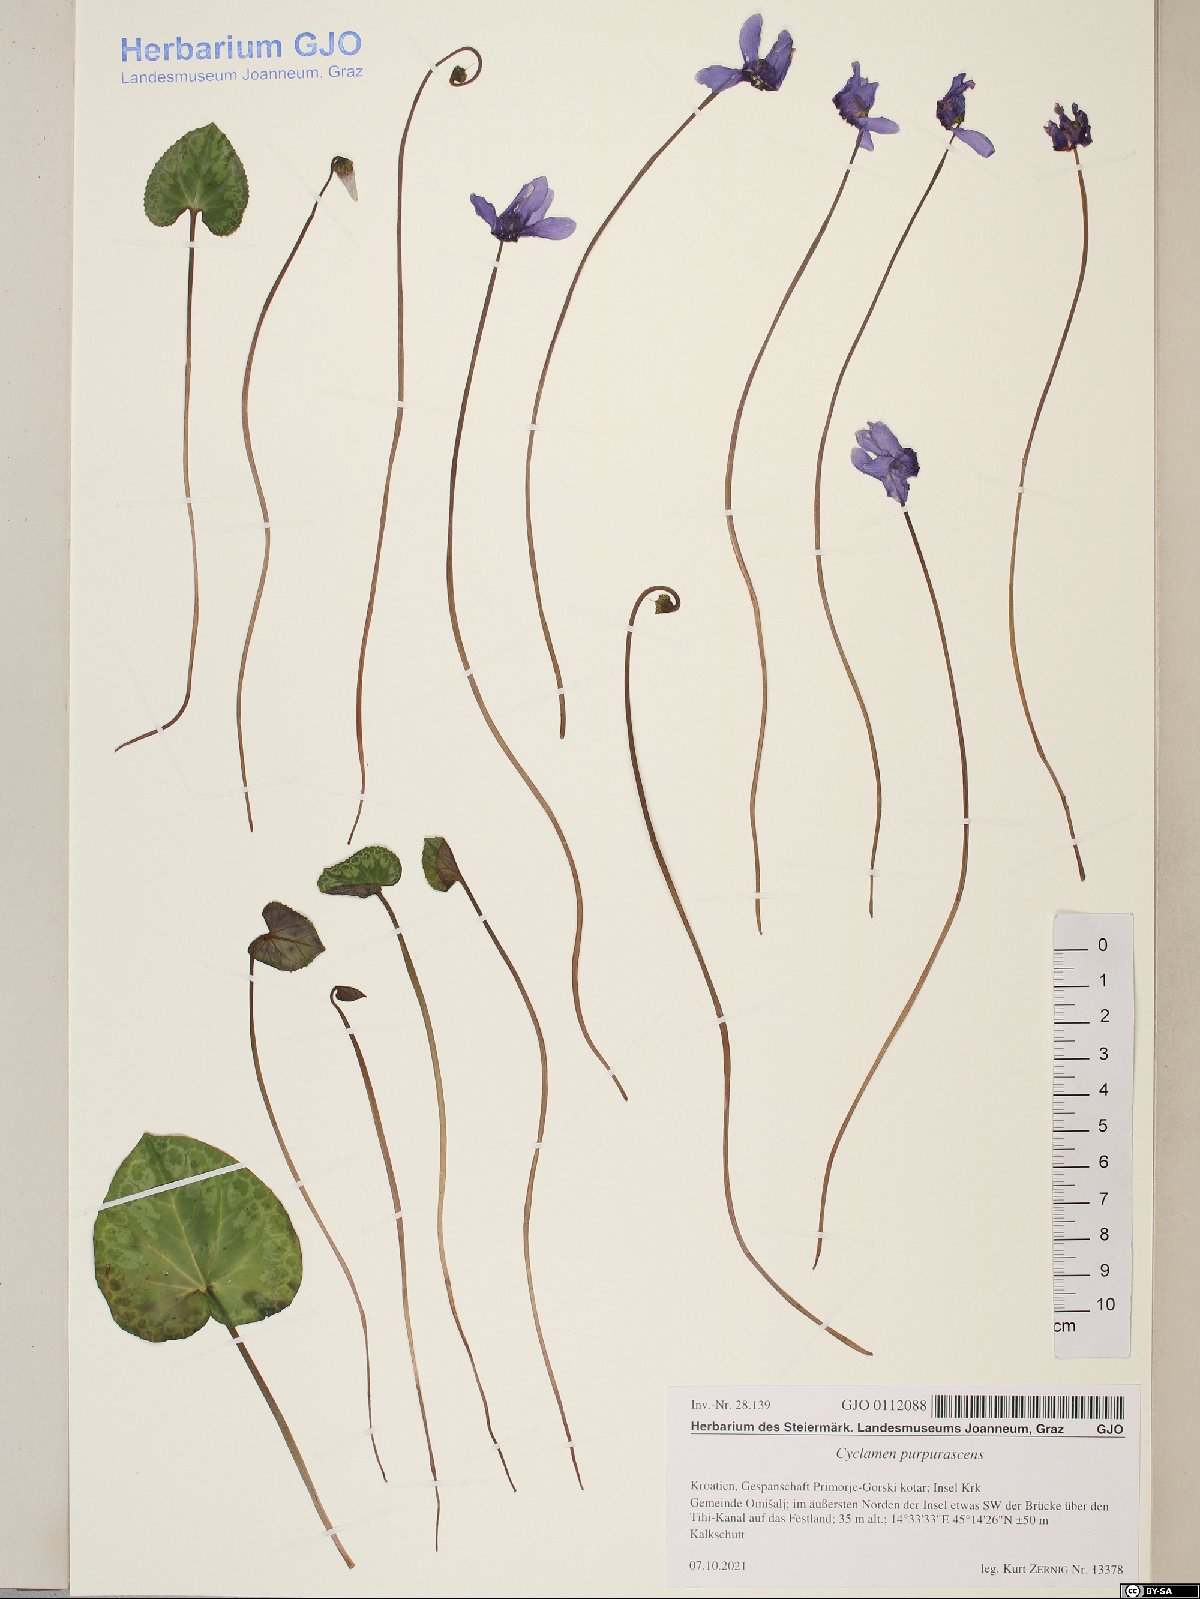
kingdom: Plantae
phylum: Tracheophyta
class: Magnoliopsida
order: Ericales
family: Primulaceae
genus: Cyclamen
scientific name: Cyclamen purpurascens
